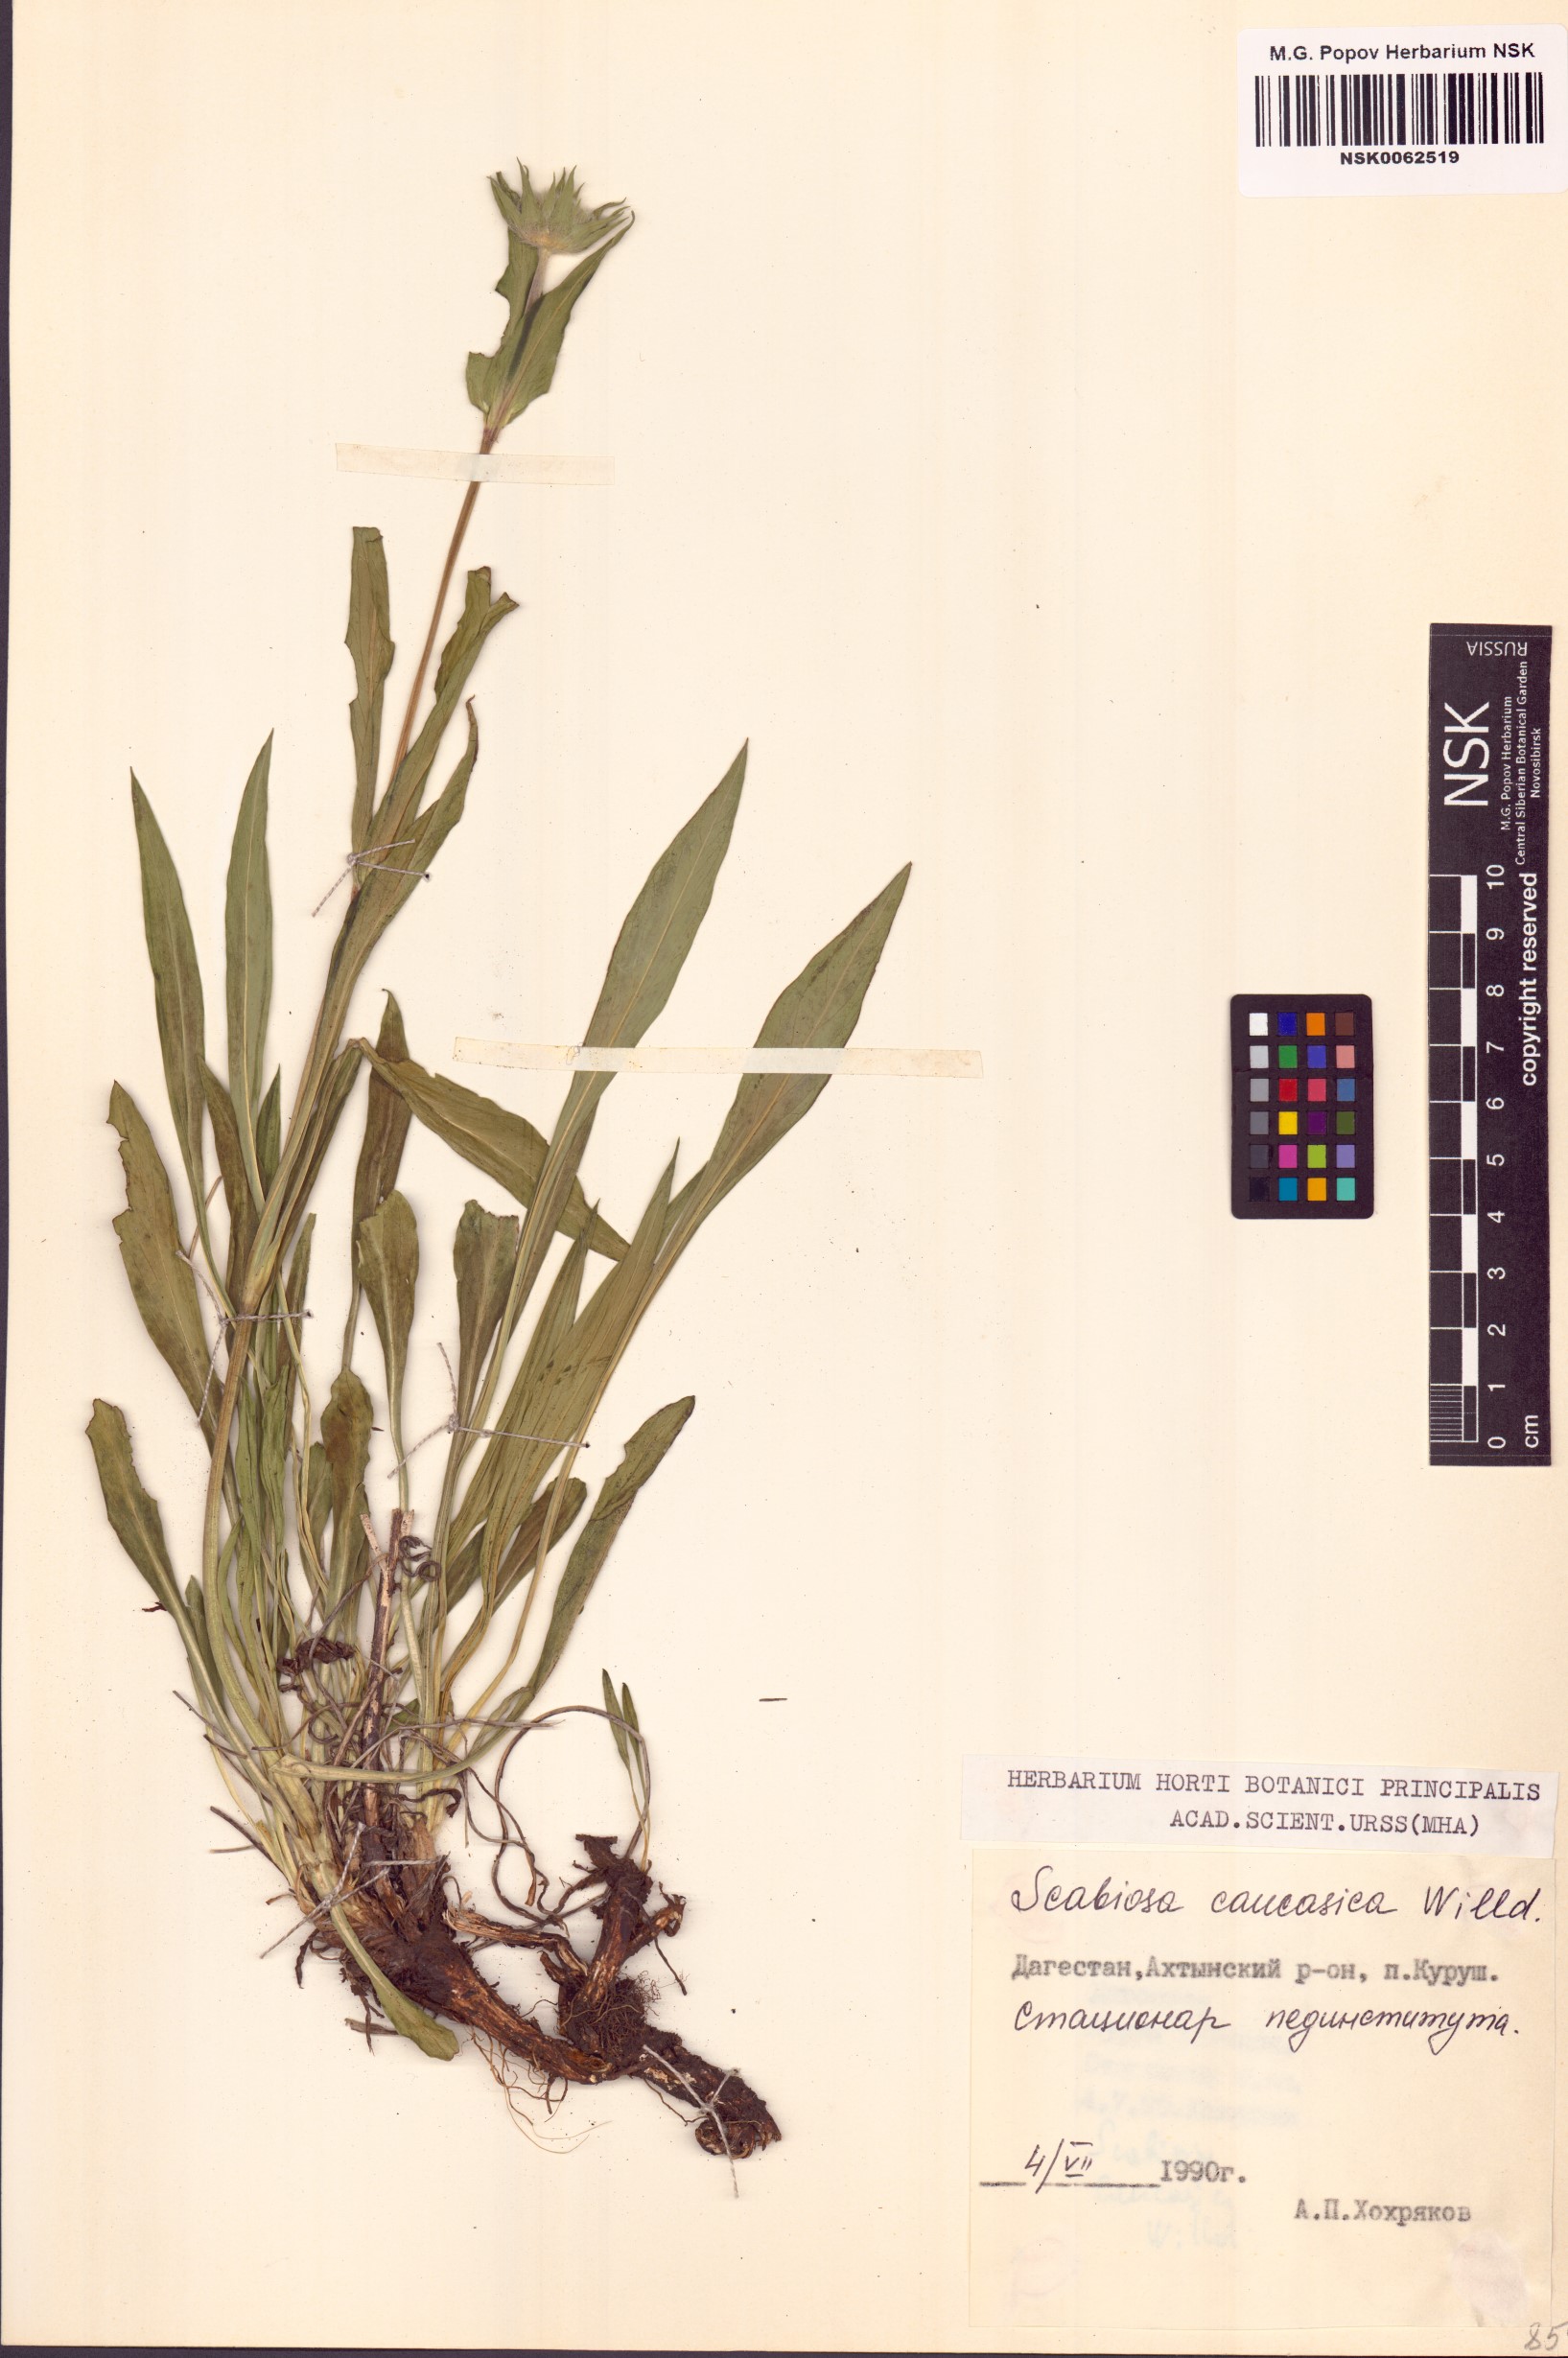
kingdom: Plantae
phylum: Tracheophyta
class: Magnoliopsida
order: Dipsacales
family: Caprifoliaceae
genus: Lomelosia
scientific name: Lomelosia caucasica
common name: Pincushion-flower
